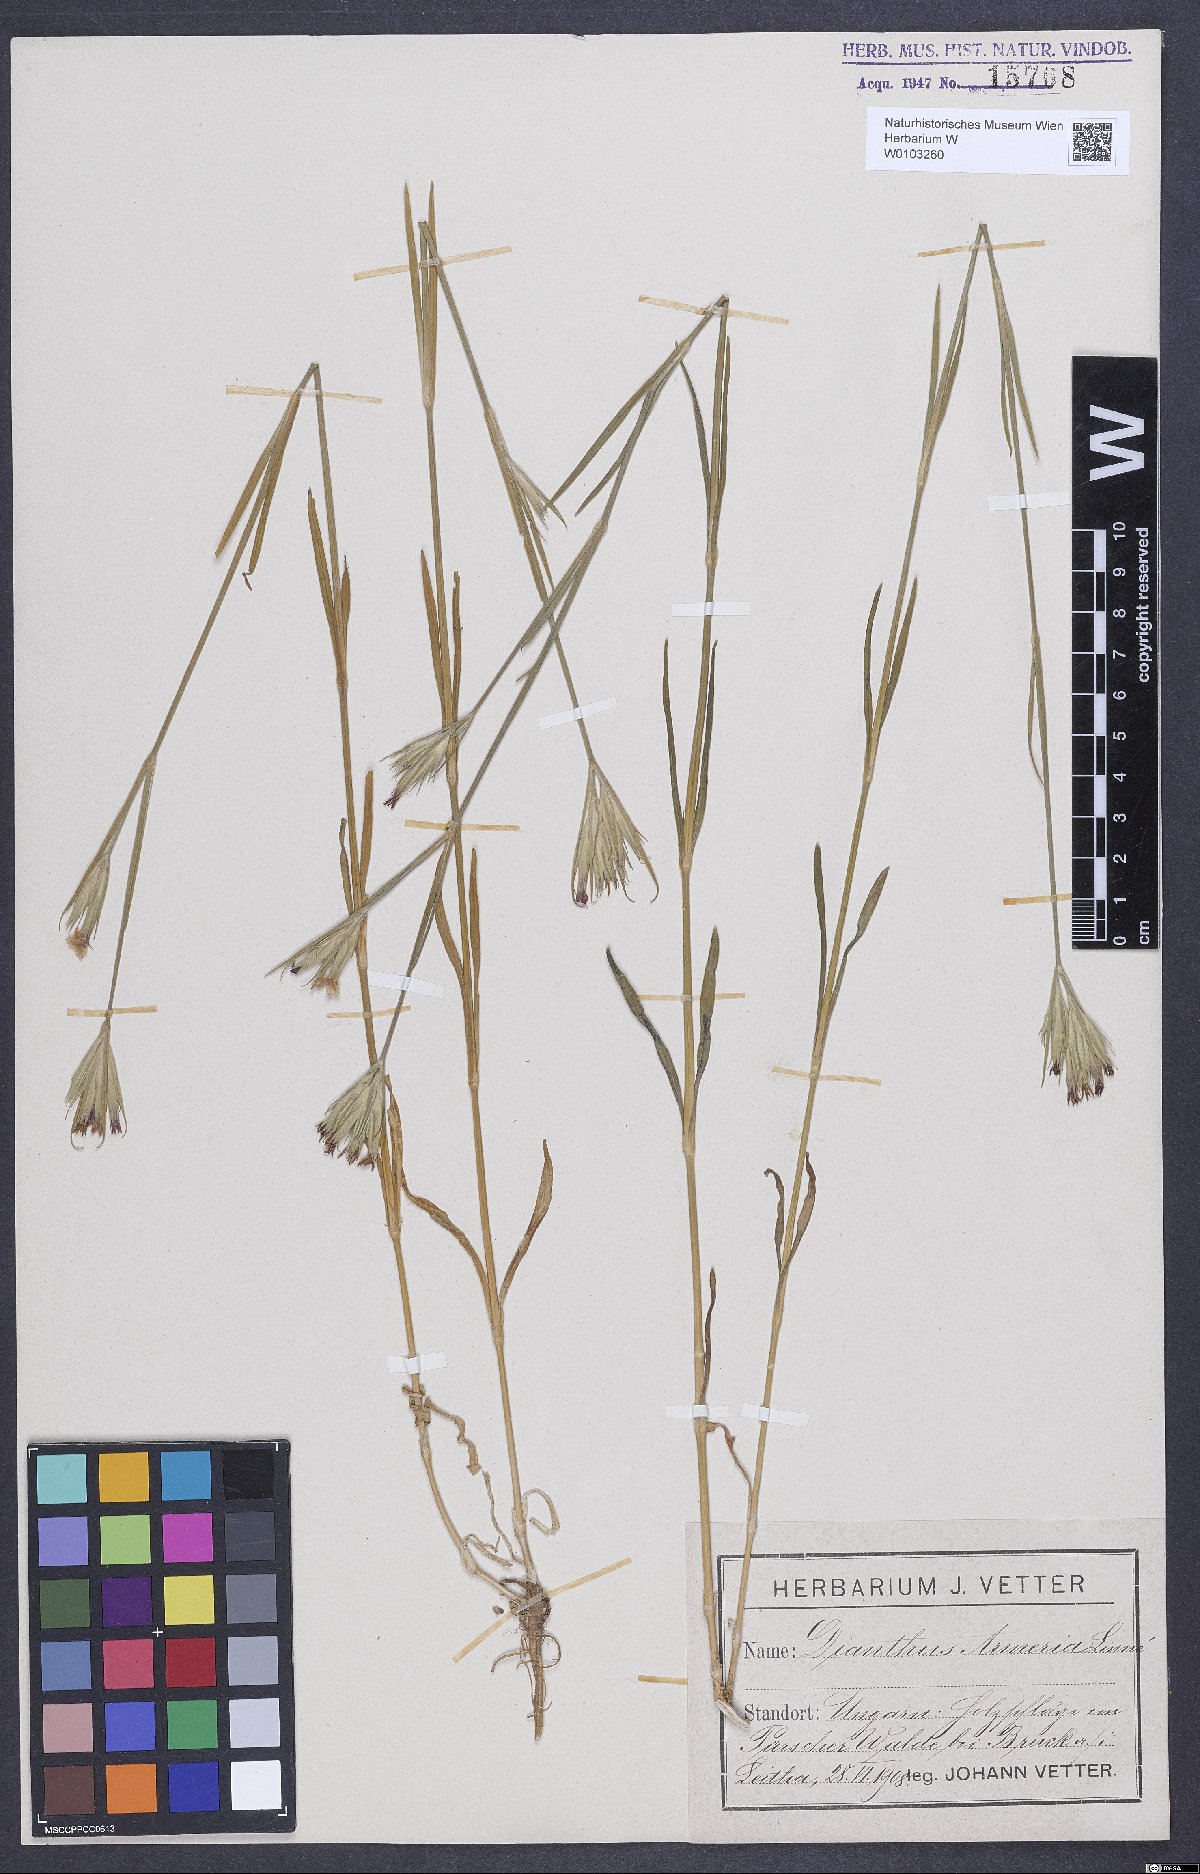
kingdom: Plantae
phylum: Tracheophyta
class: Magnoliopsida
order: Caryophyllales
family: Caryophyllaceae
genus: Dianthus
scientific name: Dianthus armeria
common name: Deptford pink
